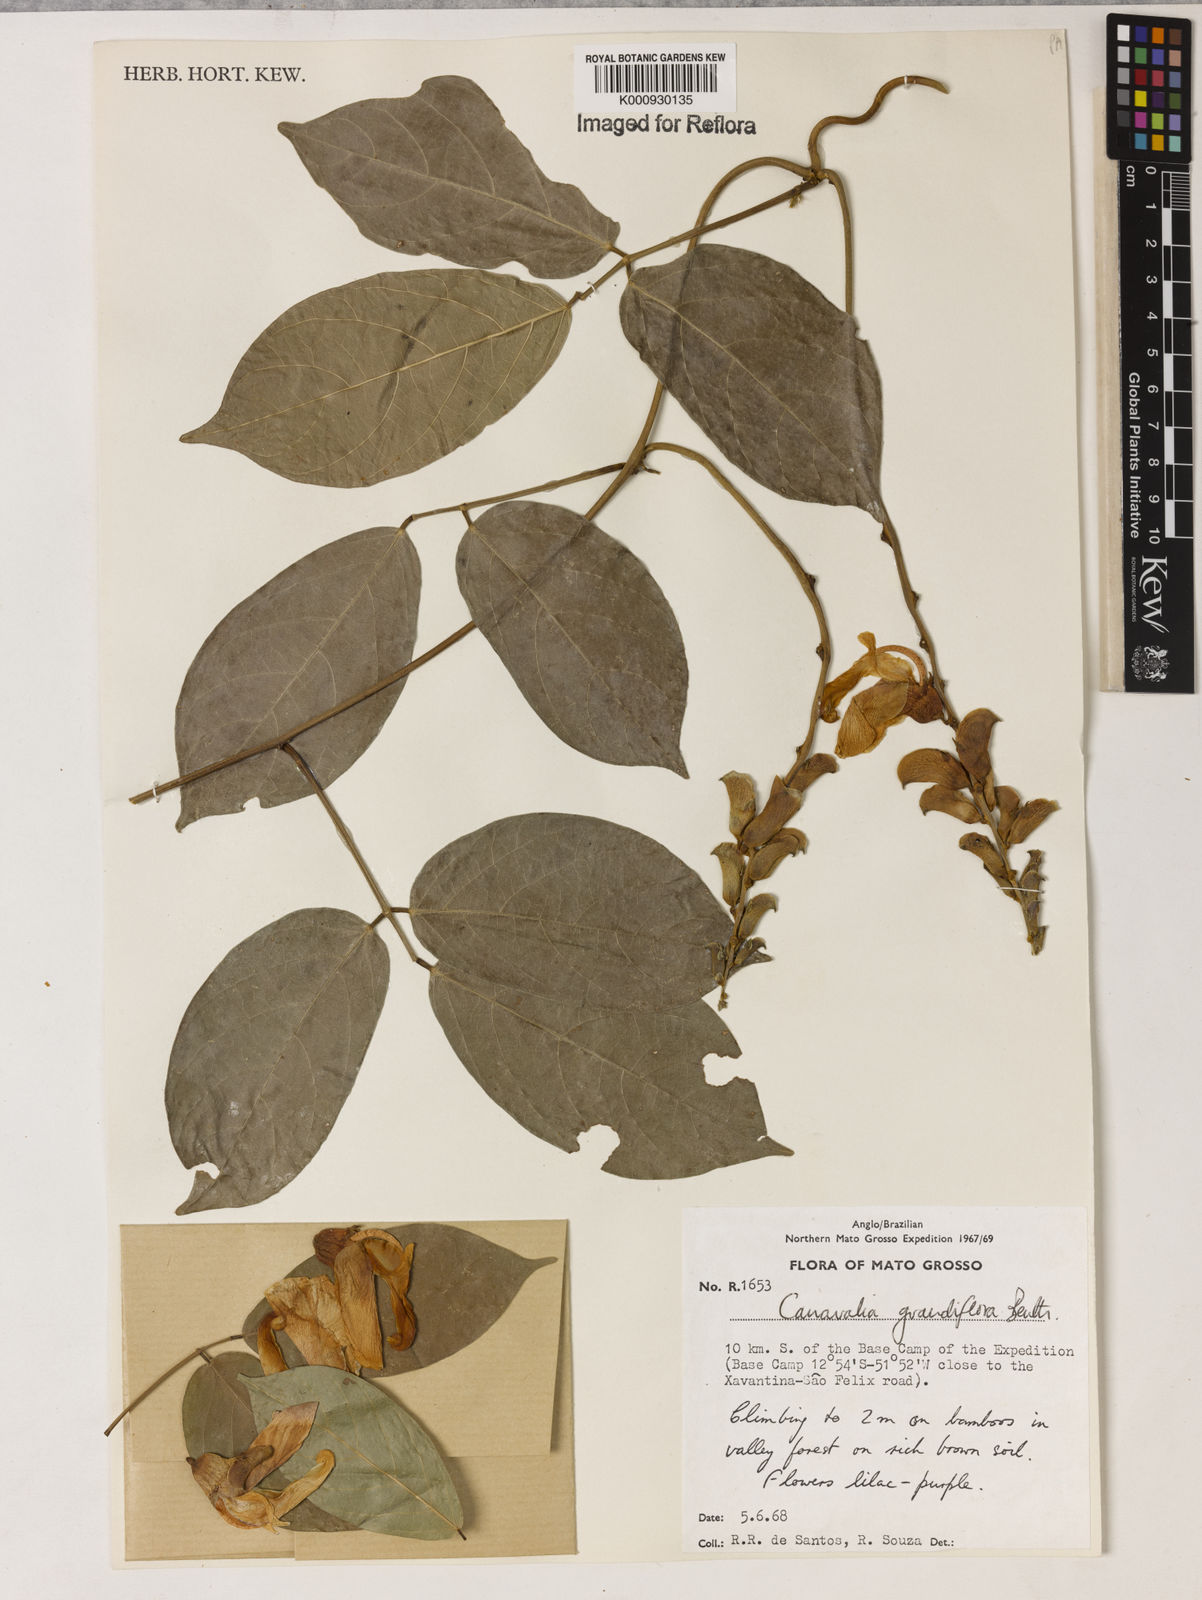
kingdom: Plantae
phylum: Tracheophyta
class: Magnoliopsida
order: Fabales
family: Fabaceae
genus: Canavalia
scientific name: Canavalia grandiflora
